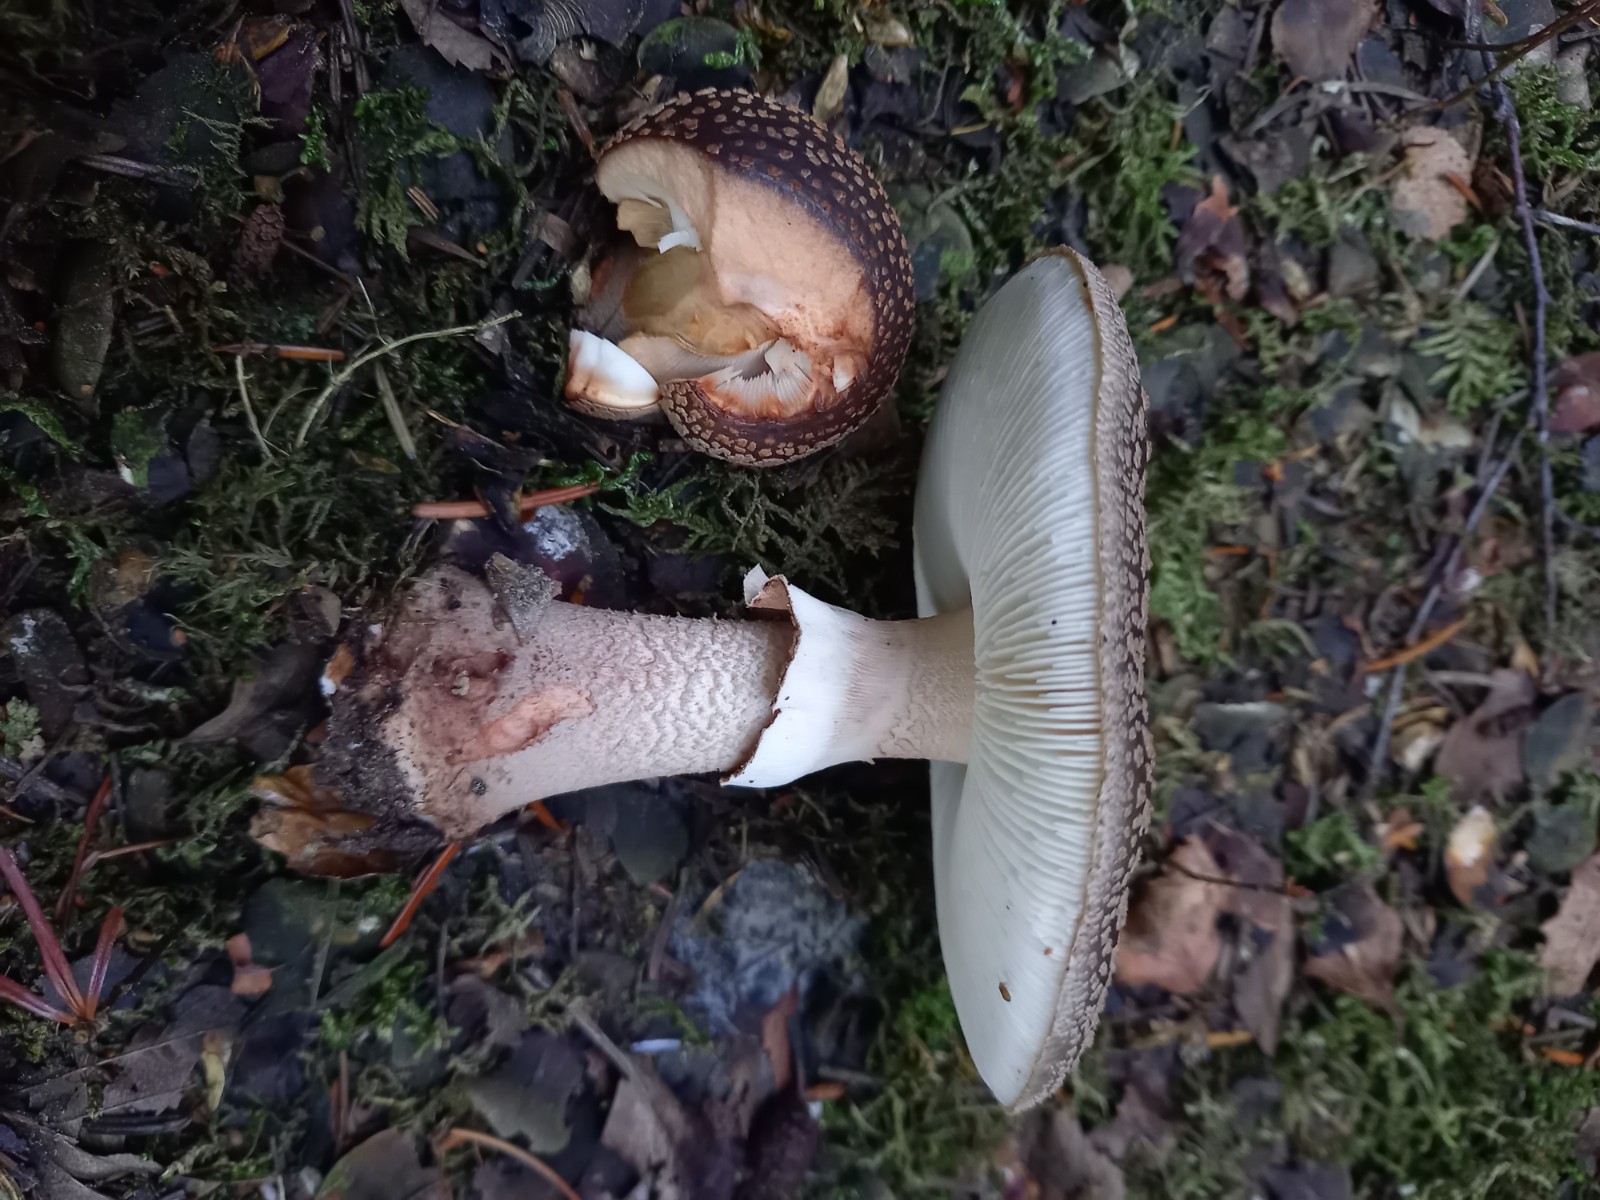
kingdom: Fungi
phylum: Basidiomycota
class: Agaricomycetes
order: Agaricales
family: Amanitaceae
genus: Amanita
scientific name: Amanita rubescens
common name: rødmende fluesvamp
